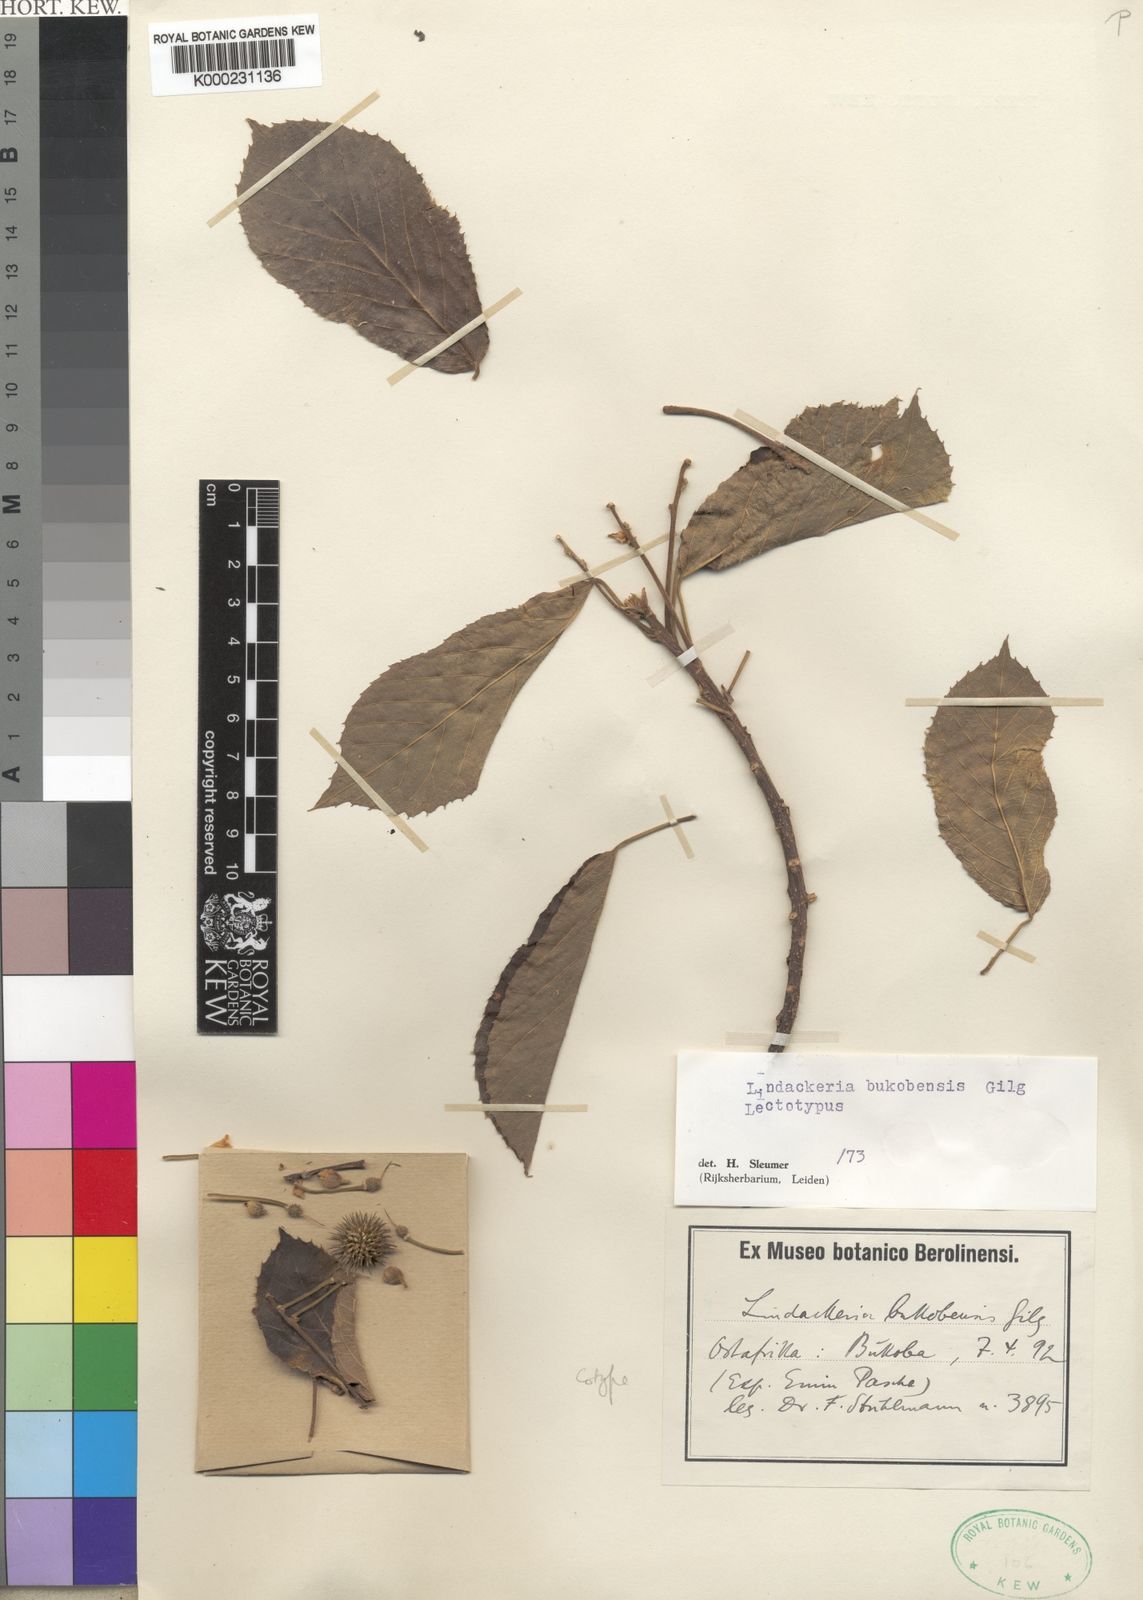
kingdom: Plantae
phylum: Tracheophyta
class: Magnoliopsida
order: Malpighiales
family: Achariaceae
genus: Lindackeria
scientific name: Lindackeria bukobensis
